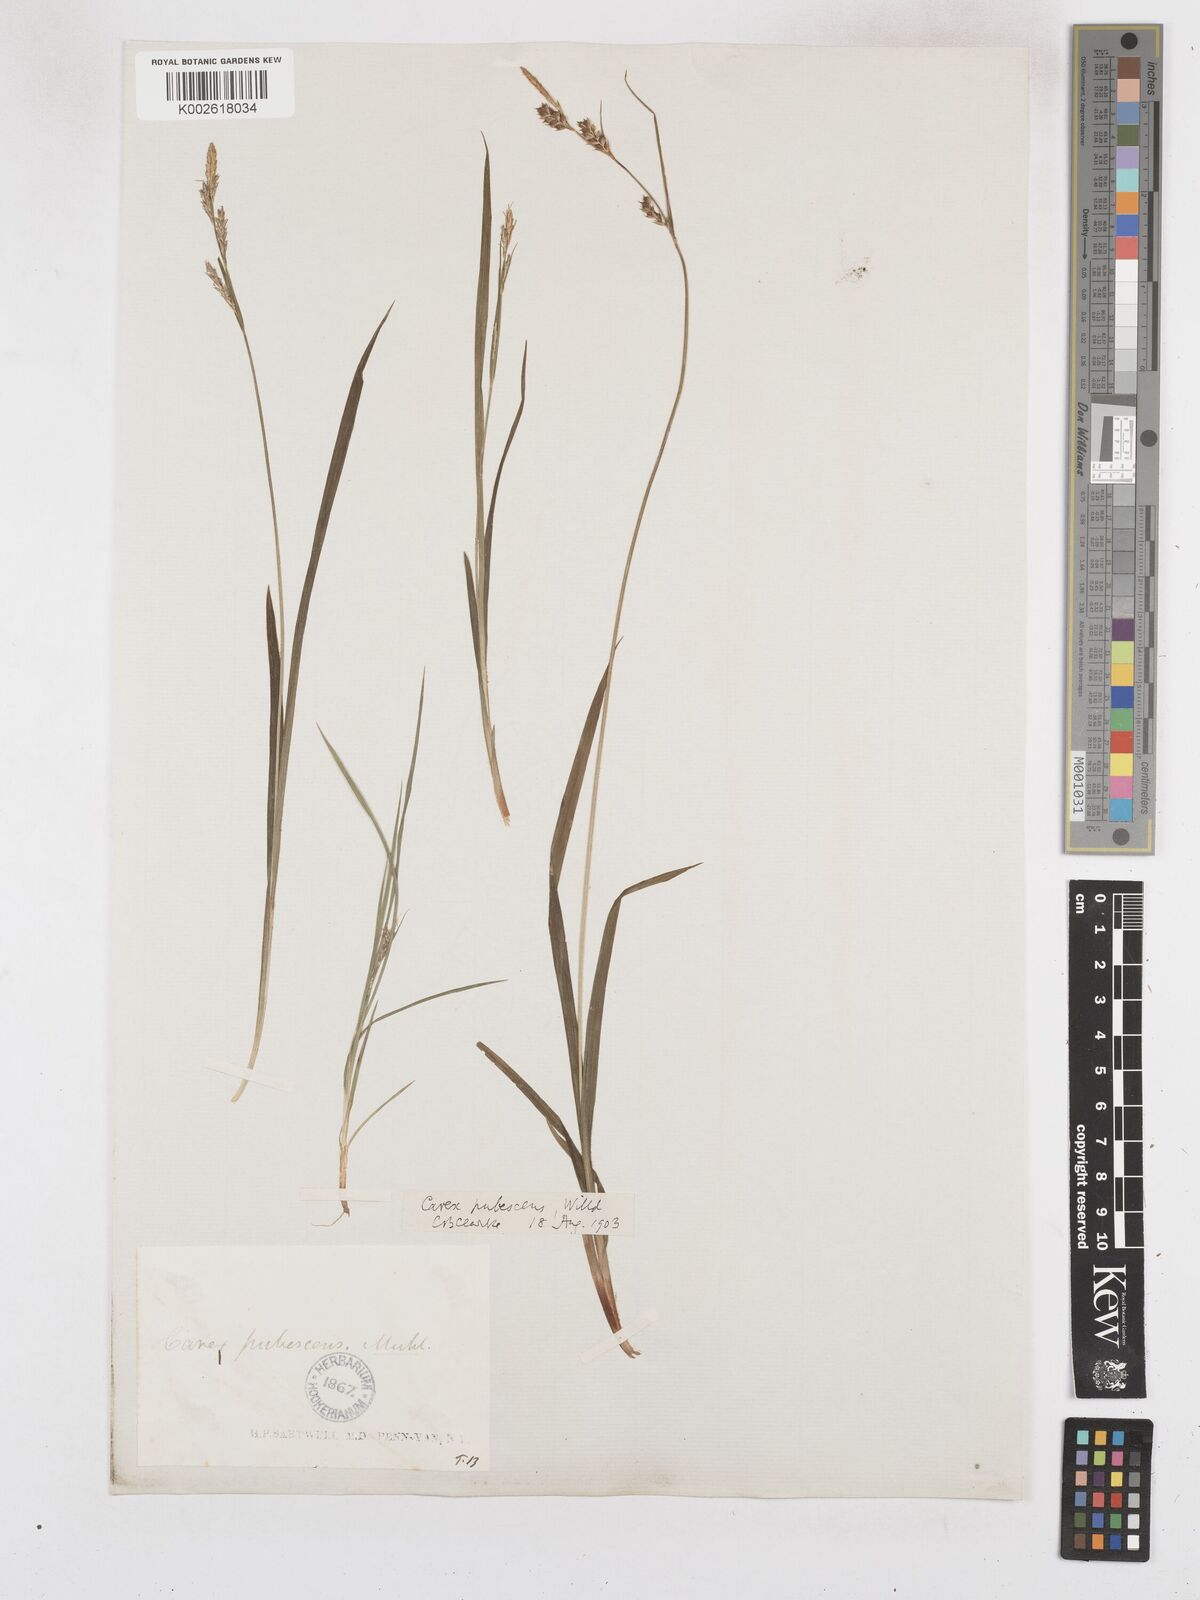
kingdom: Plantae
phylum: Tracheophyta
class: Liliopsida
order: Poales
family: Cyperaceae
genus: Carex
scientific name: Carex hirtifolia
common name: Hairy sedge
